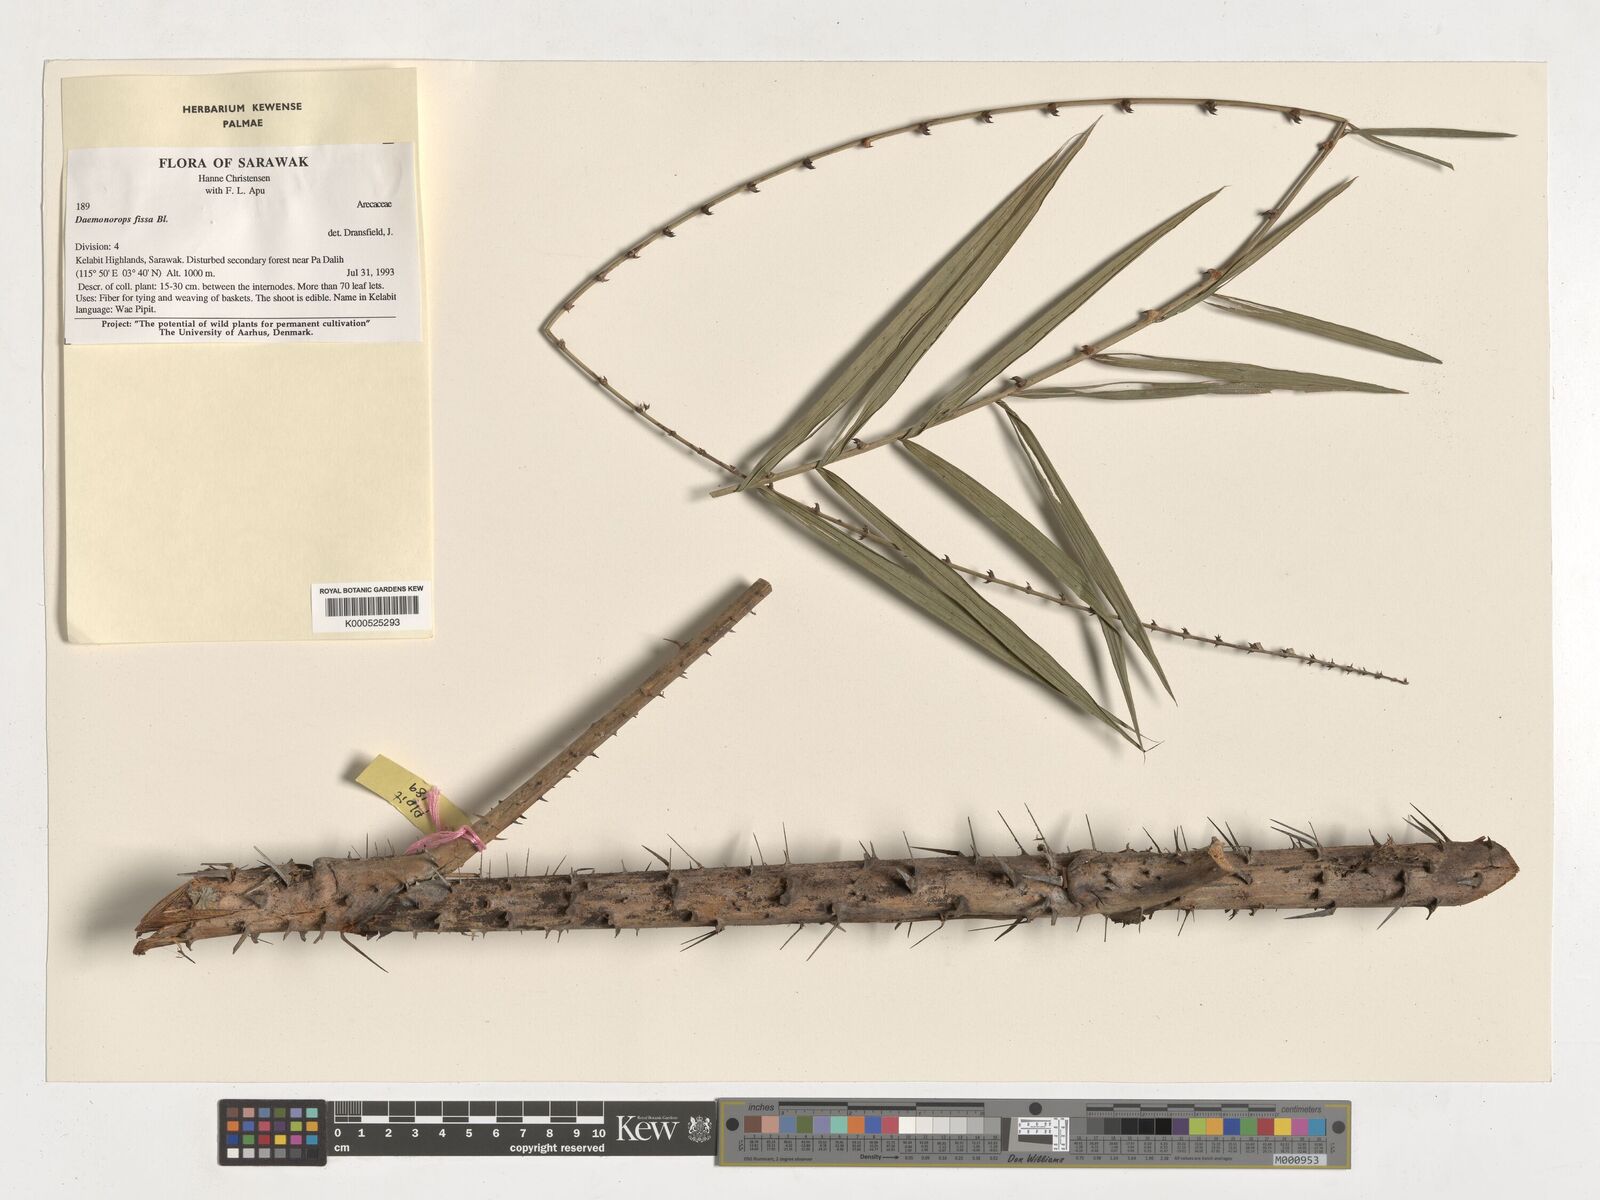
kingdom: Plantae
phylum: Tracheophyta
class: Liliopsida
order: Arecales
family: Arecaceae
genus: Calamus
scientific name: Calamus melanochaetes
